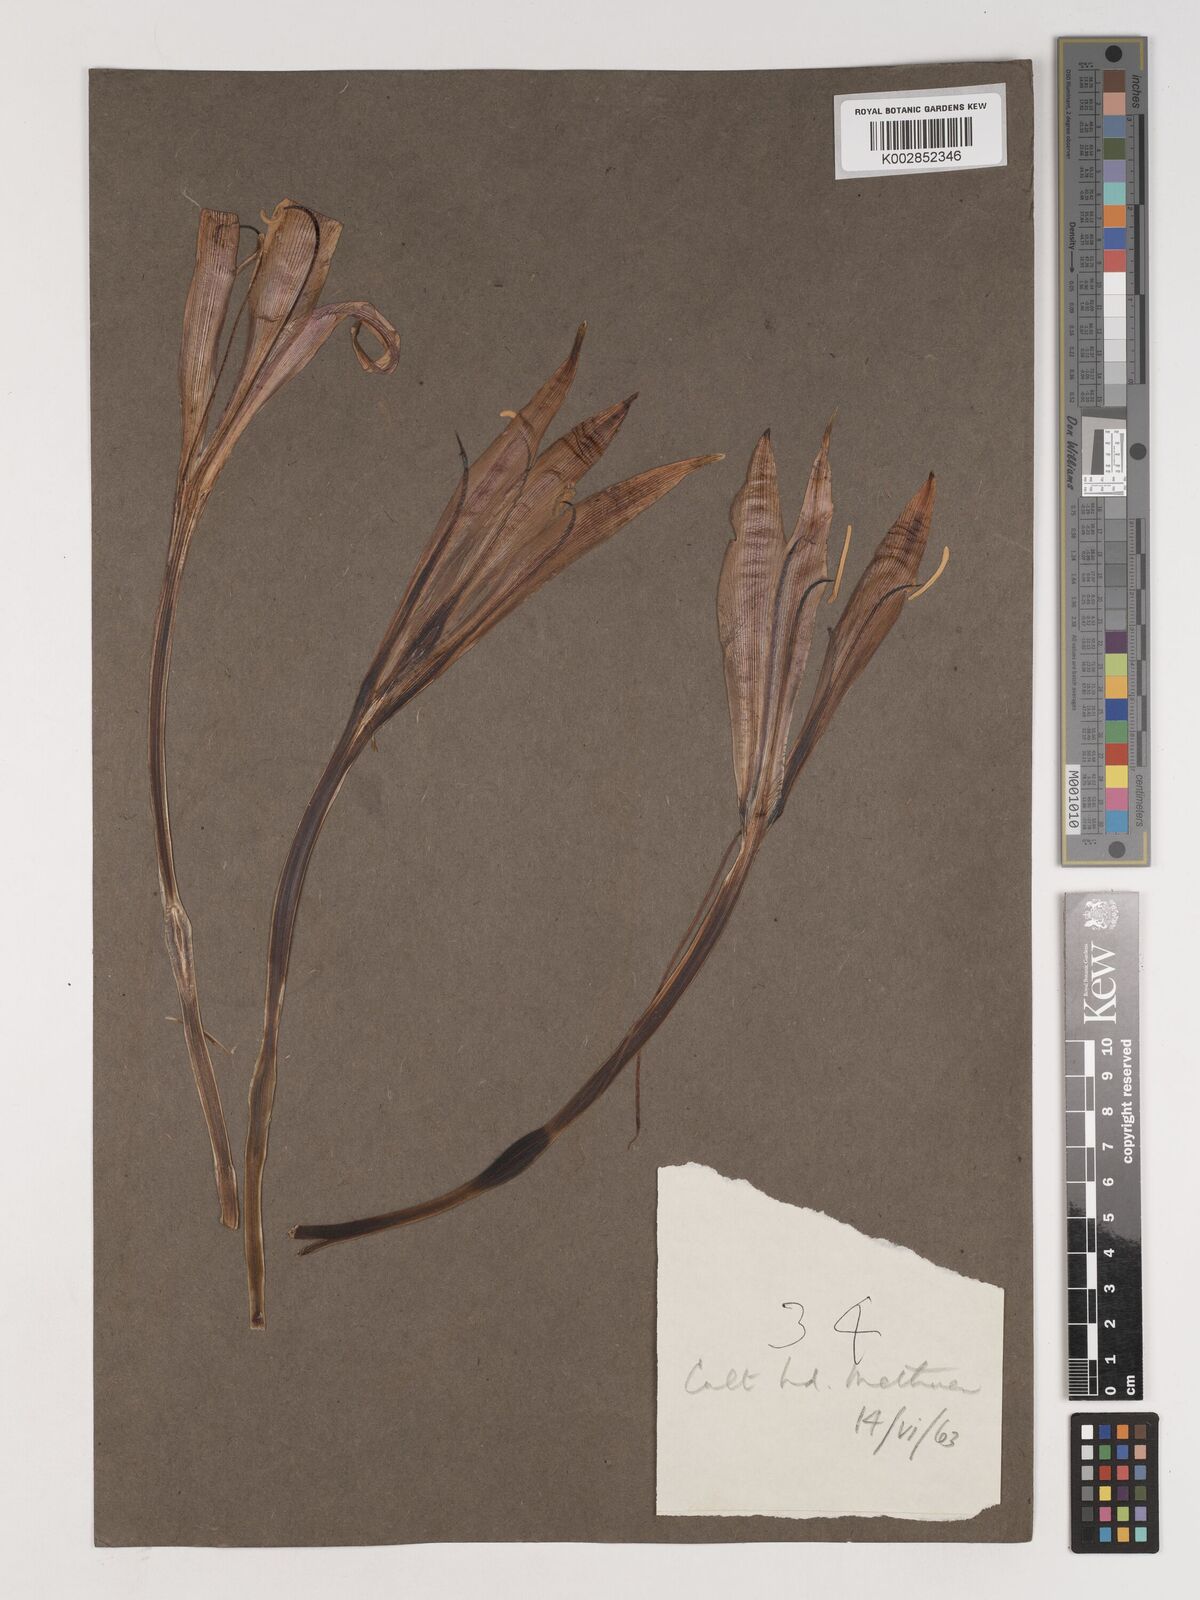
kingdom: Plantae
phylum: Tracheophyta
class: Liliopsida
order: Asparagales
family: Amaryllidaceae
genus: Crinum
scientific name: Crinum
